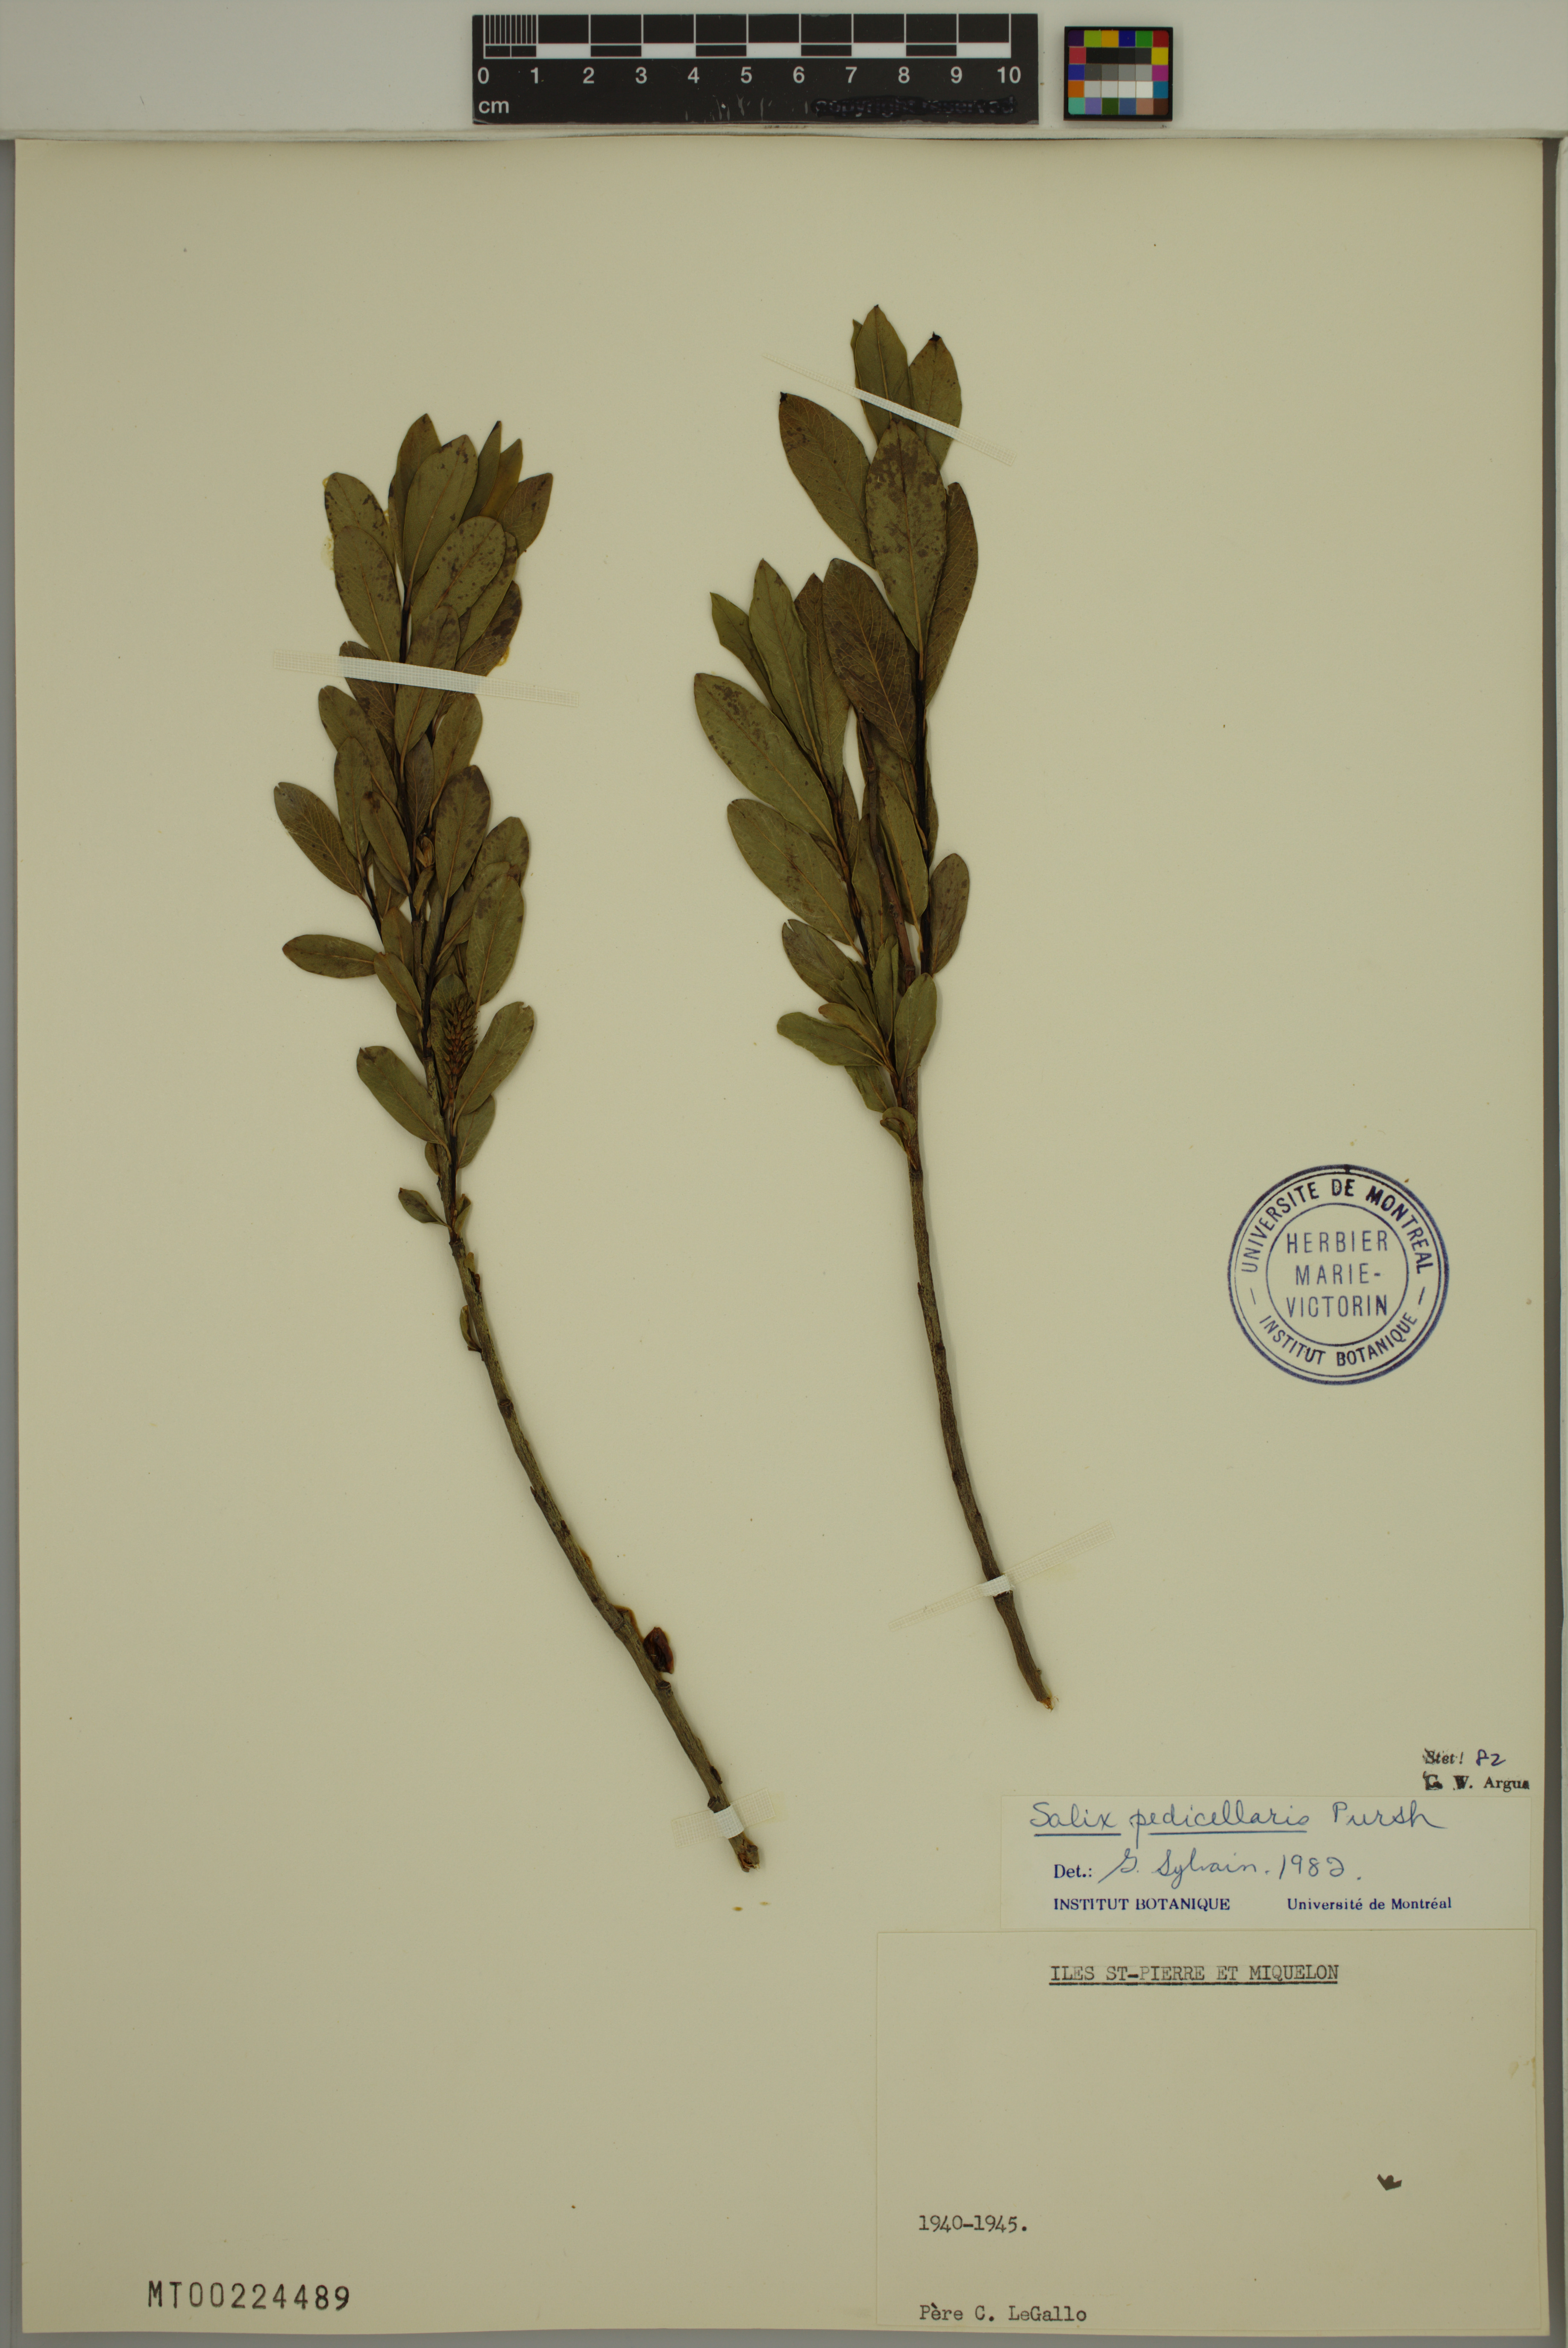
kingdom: Plantae
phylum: Tracheophyta
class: Magnoliopsida
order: Malpighiales
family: Salicaceae
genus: Salix
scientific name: Salix pedicellaris
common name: Bog willow
